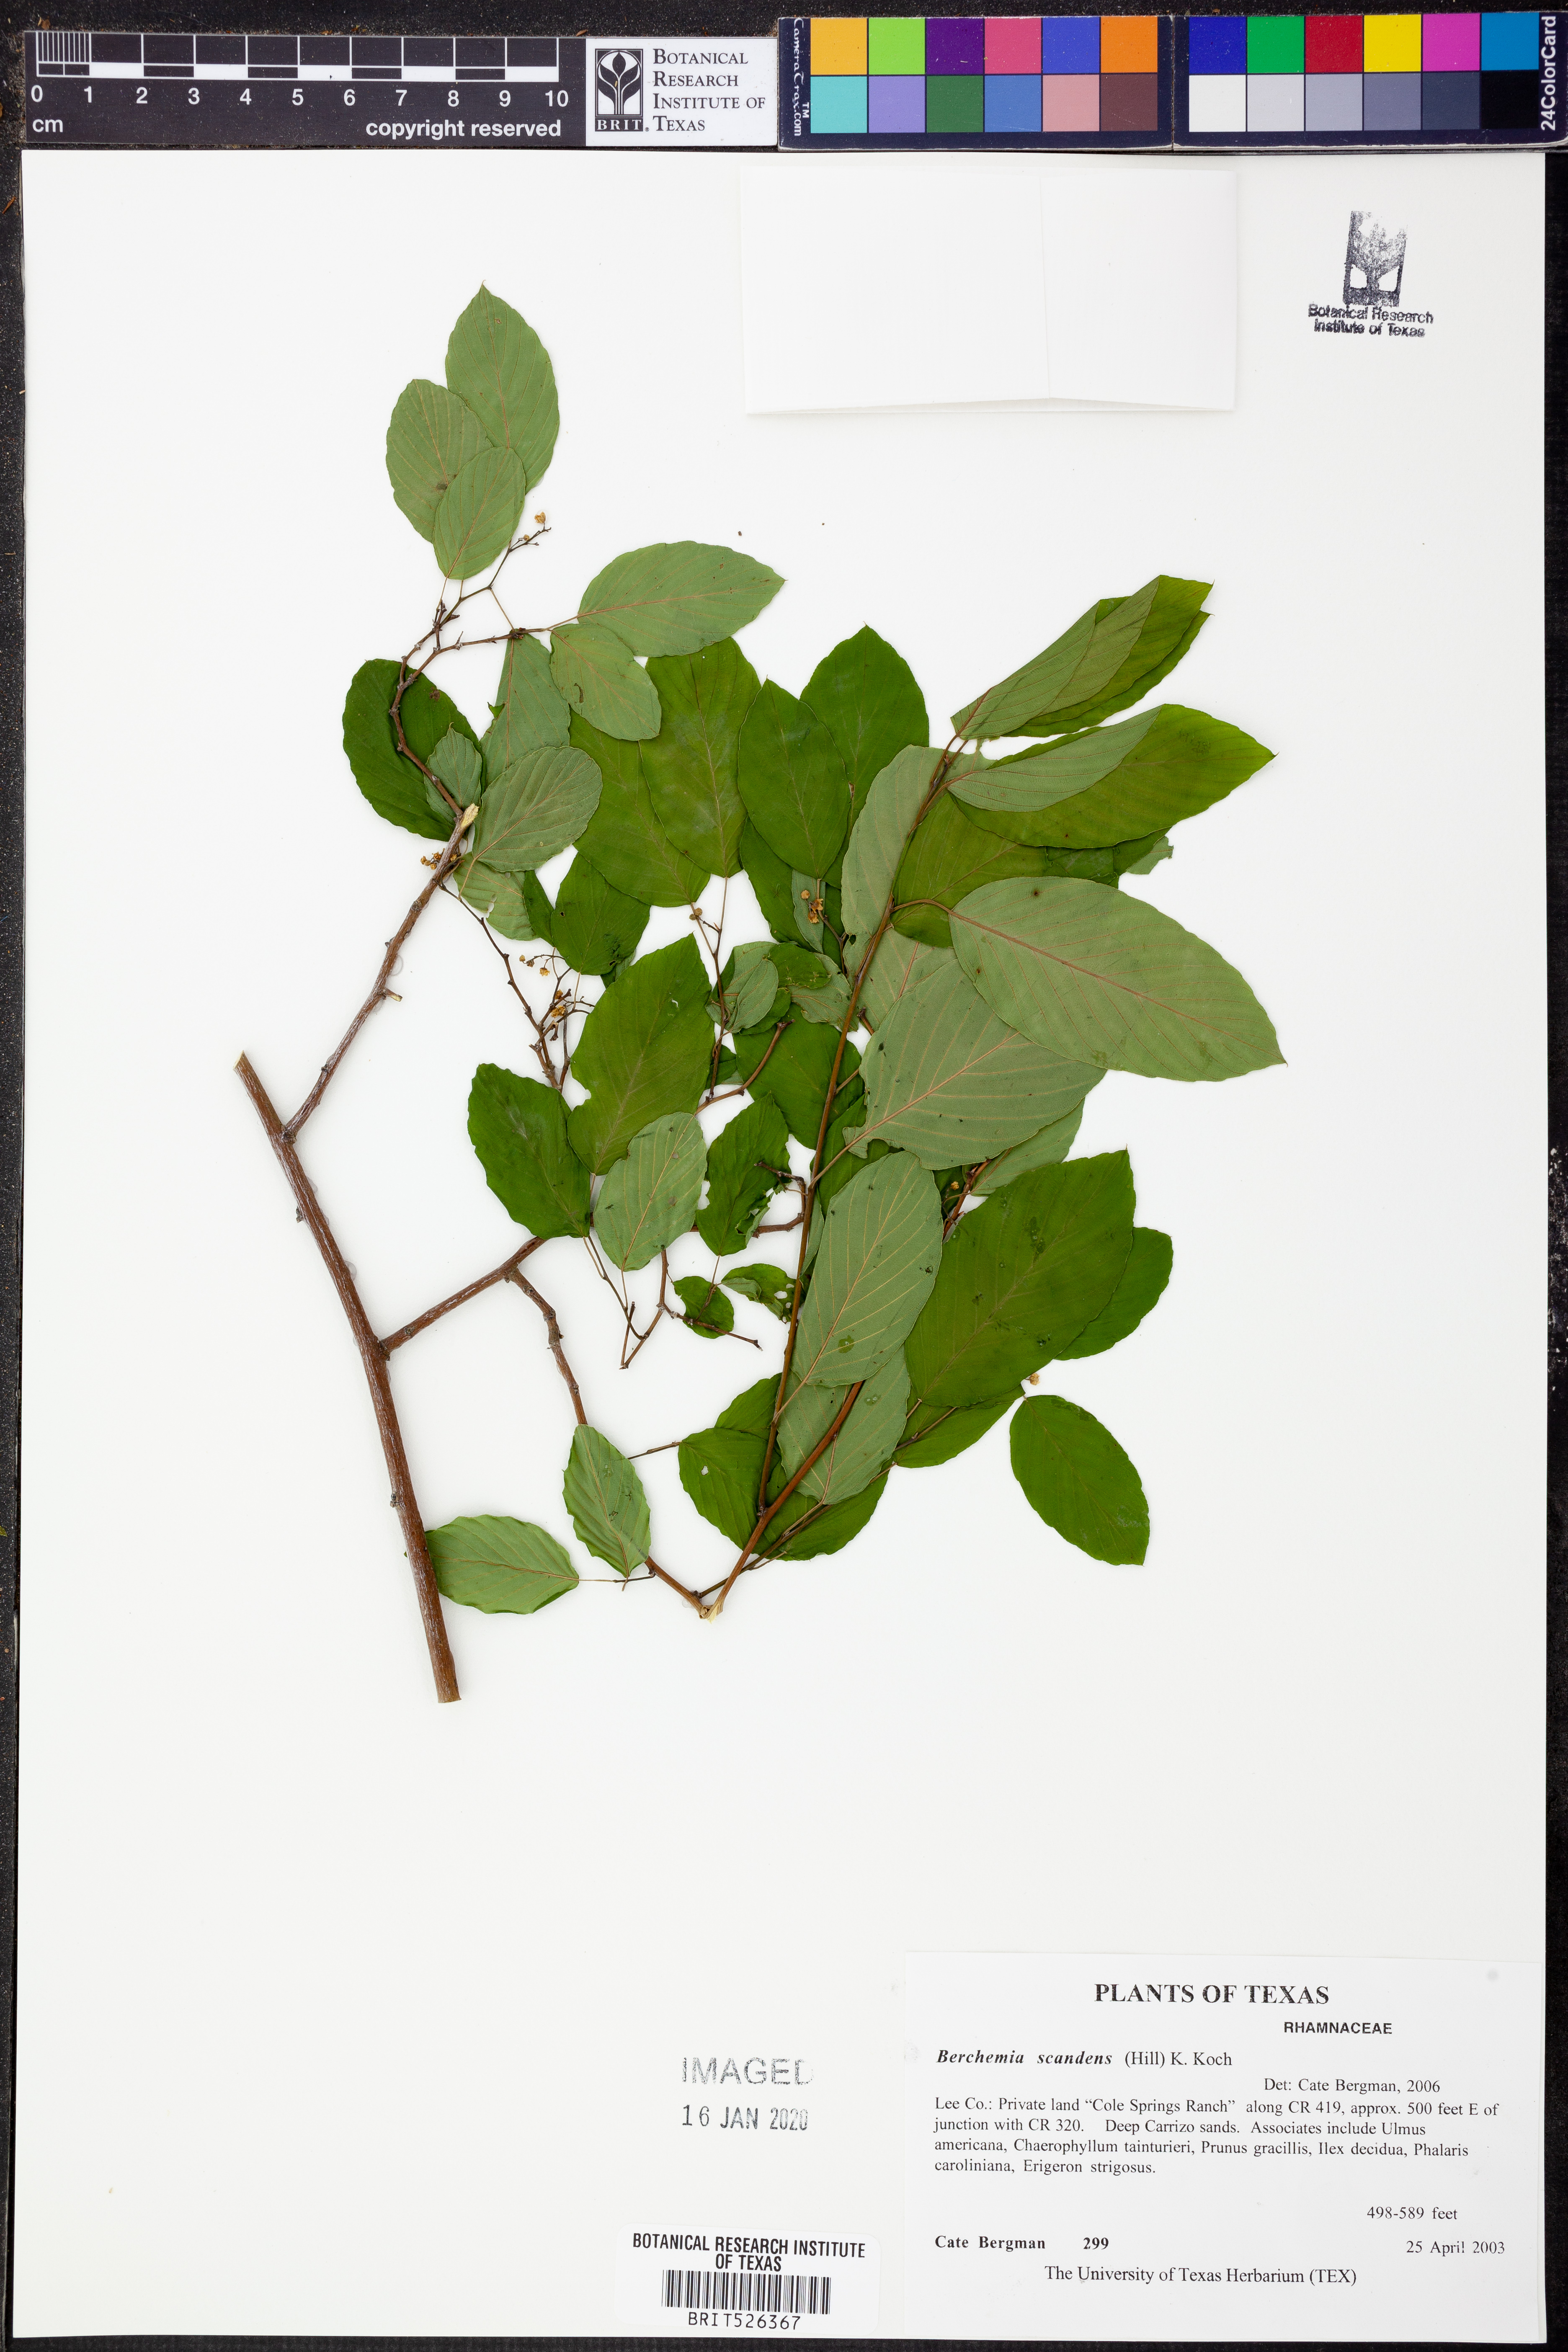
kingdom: Plantae
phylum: Tracheophyta
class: Magnoliopsida
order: Rosales
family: Rhamnaceae
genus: Berchemia
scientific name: Berchemia scandens
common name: Supplejack
